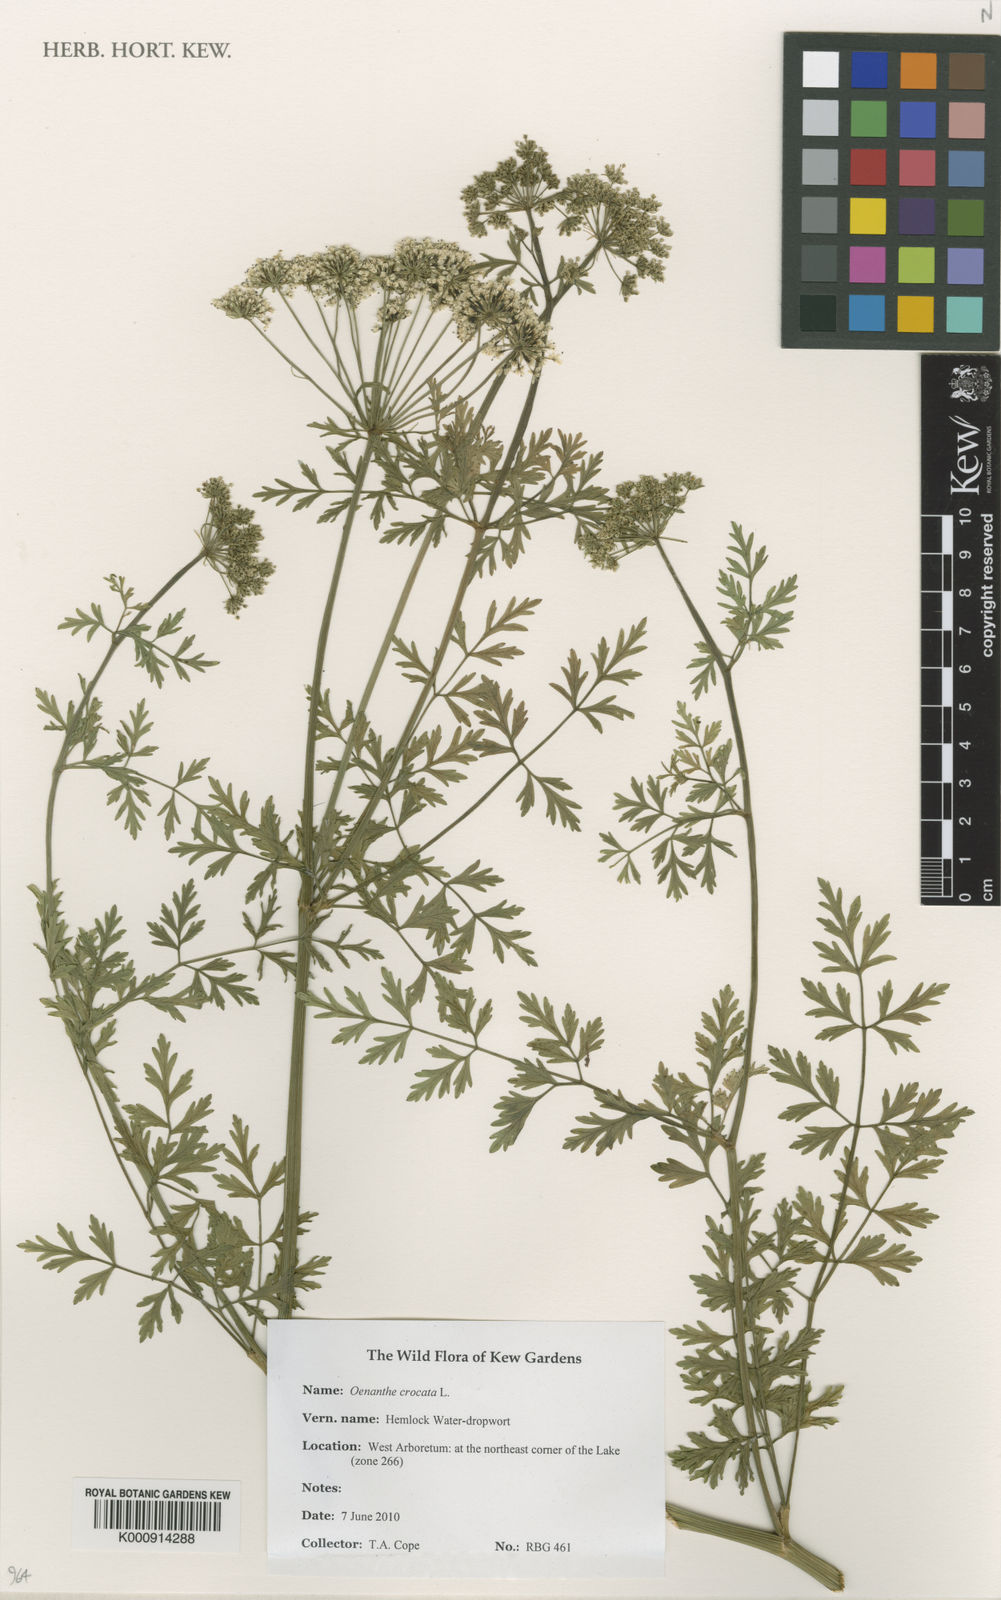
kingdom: Plantae
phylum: Tracheophyta
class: Magnoliopsida
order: Apiales
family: Apiaceae
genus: Oenanthe
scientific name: Oenanthe crocata
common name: Hemlock water-dropwort
